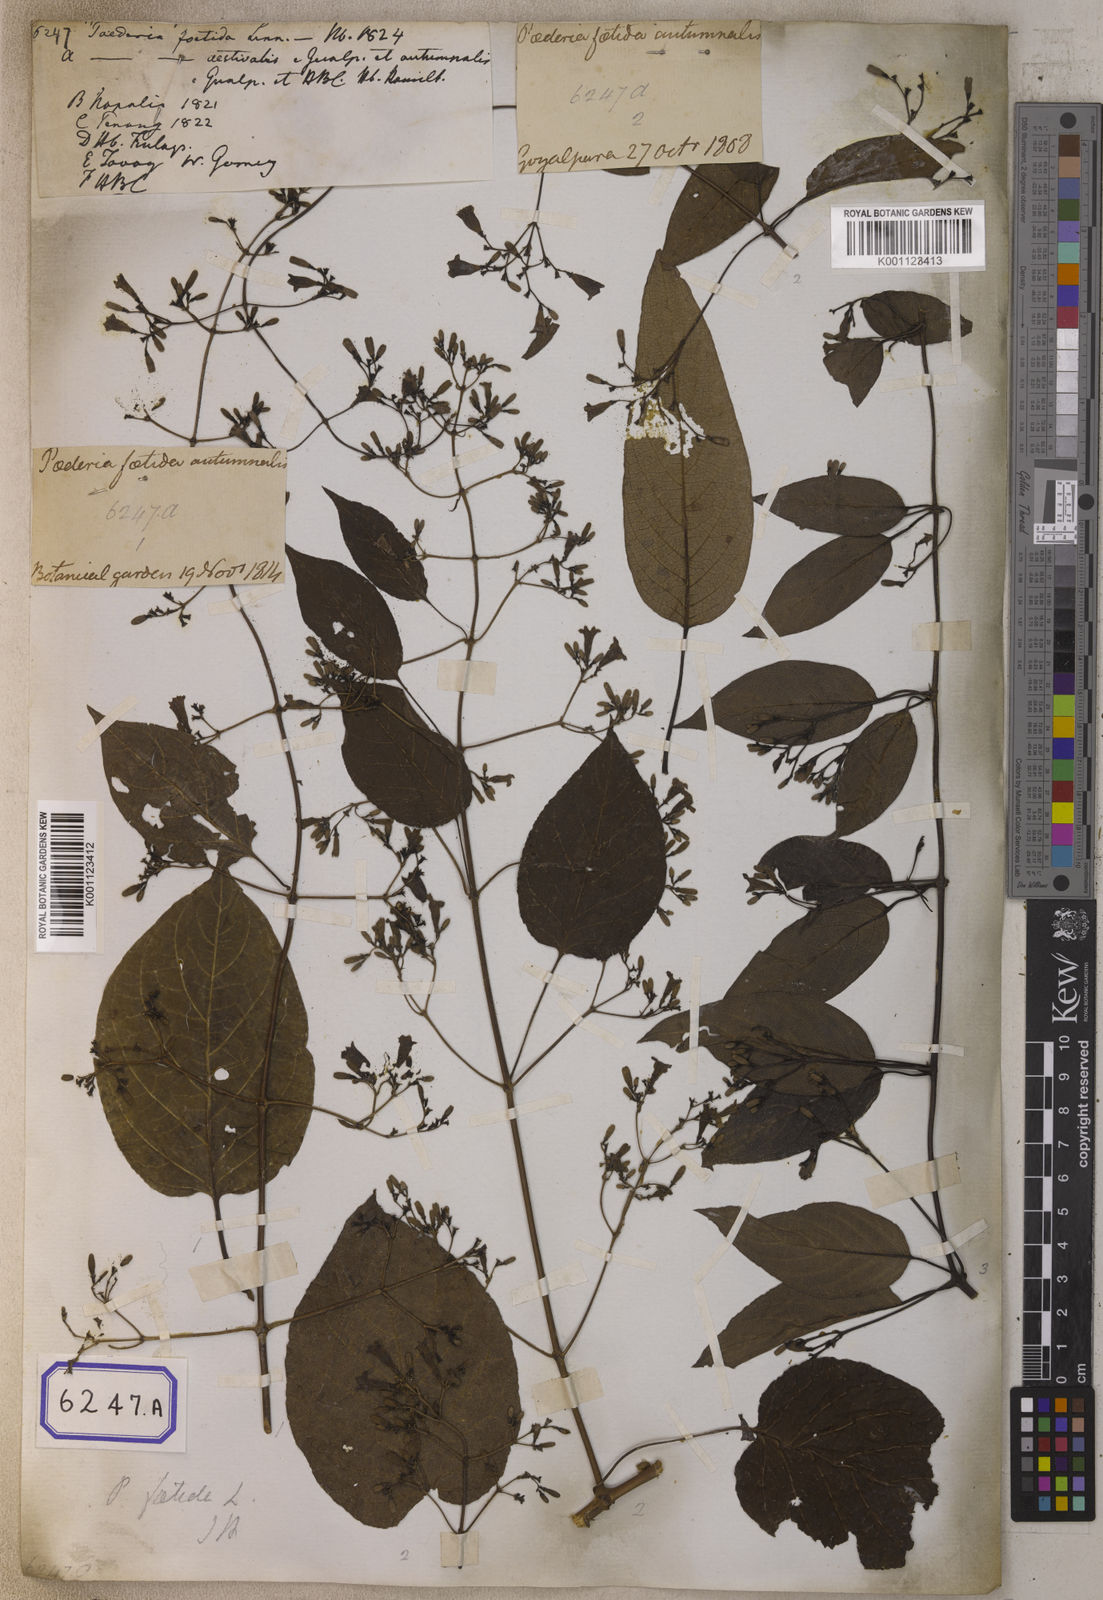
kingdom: Plantae
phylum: Tracheophyta
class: Magnoliopsida
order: Gentianales
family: Rubiaceae
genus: Paederia
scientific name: Paederia
